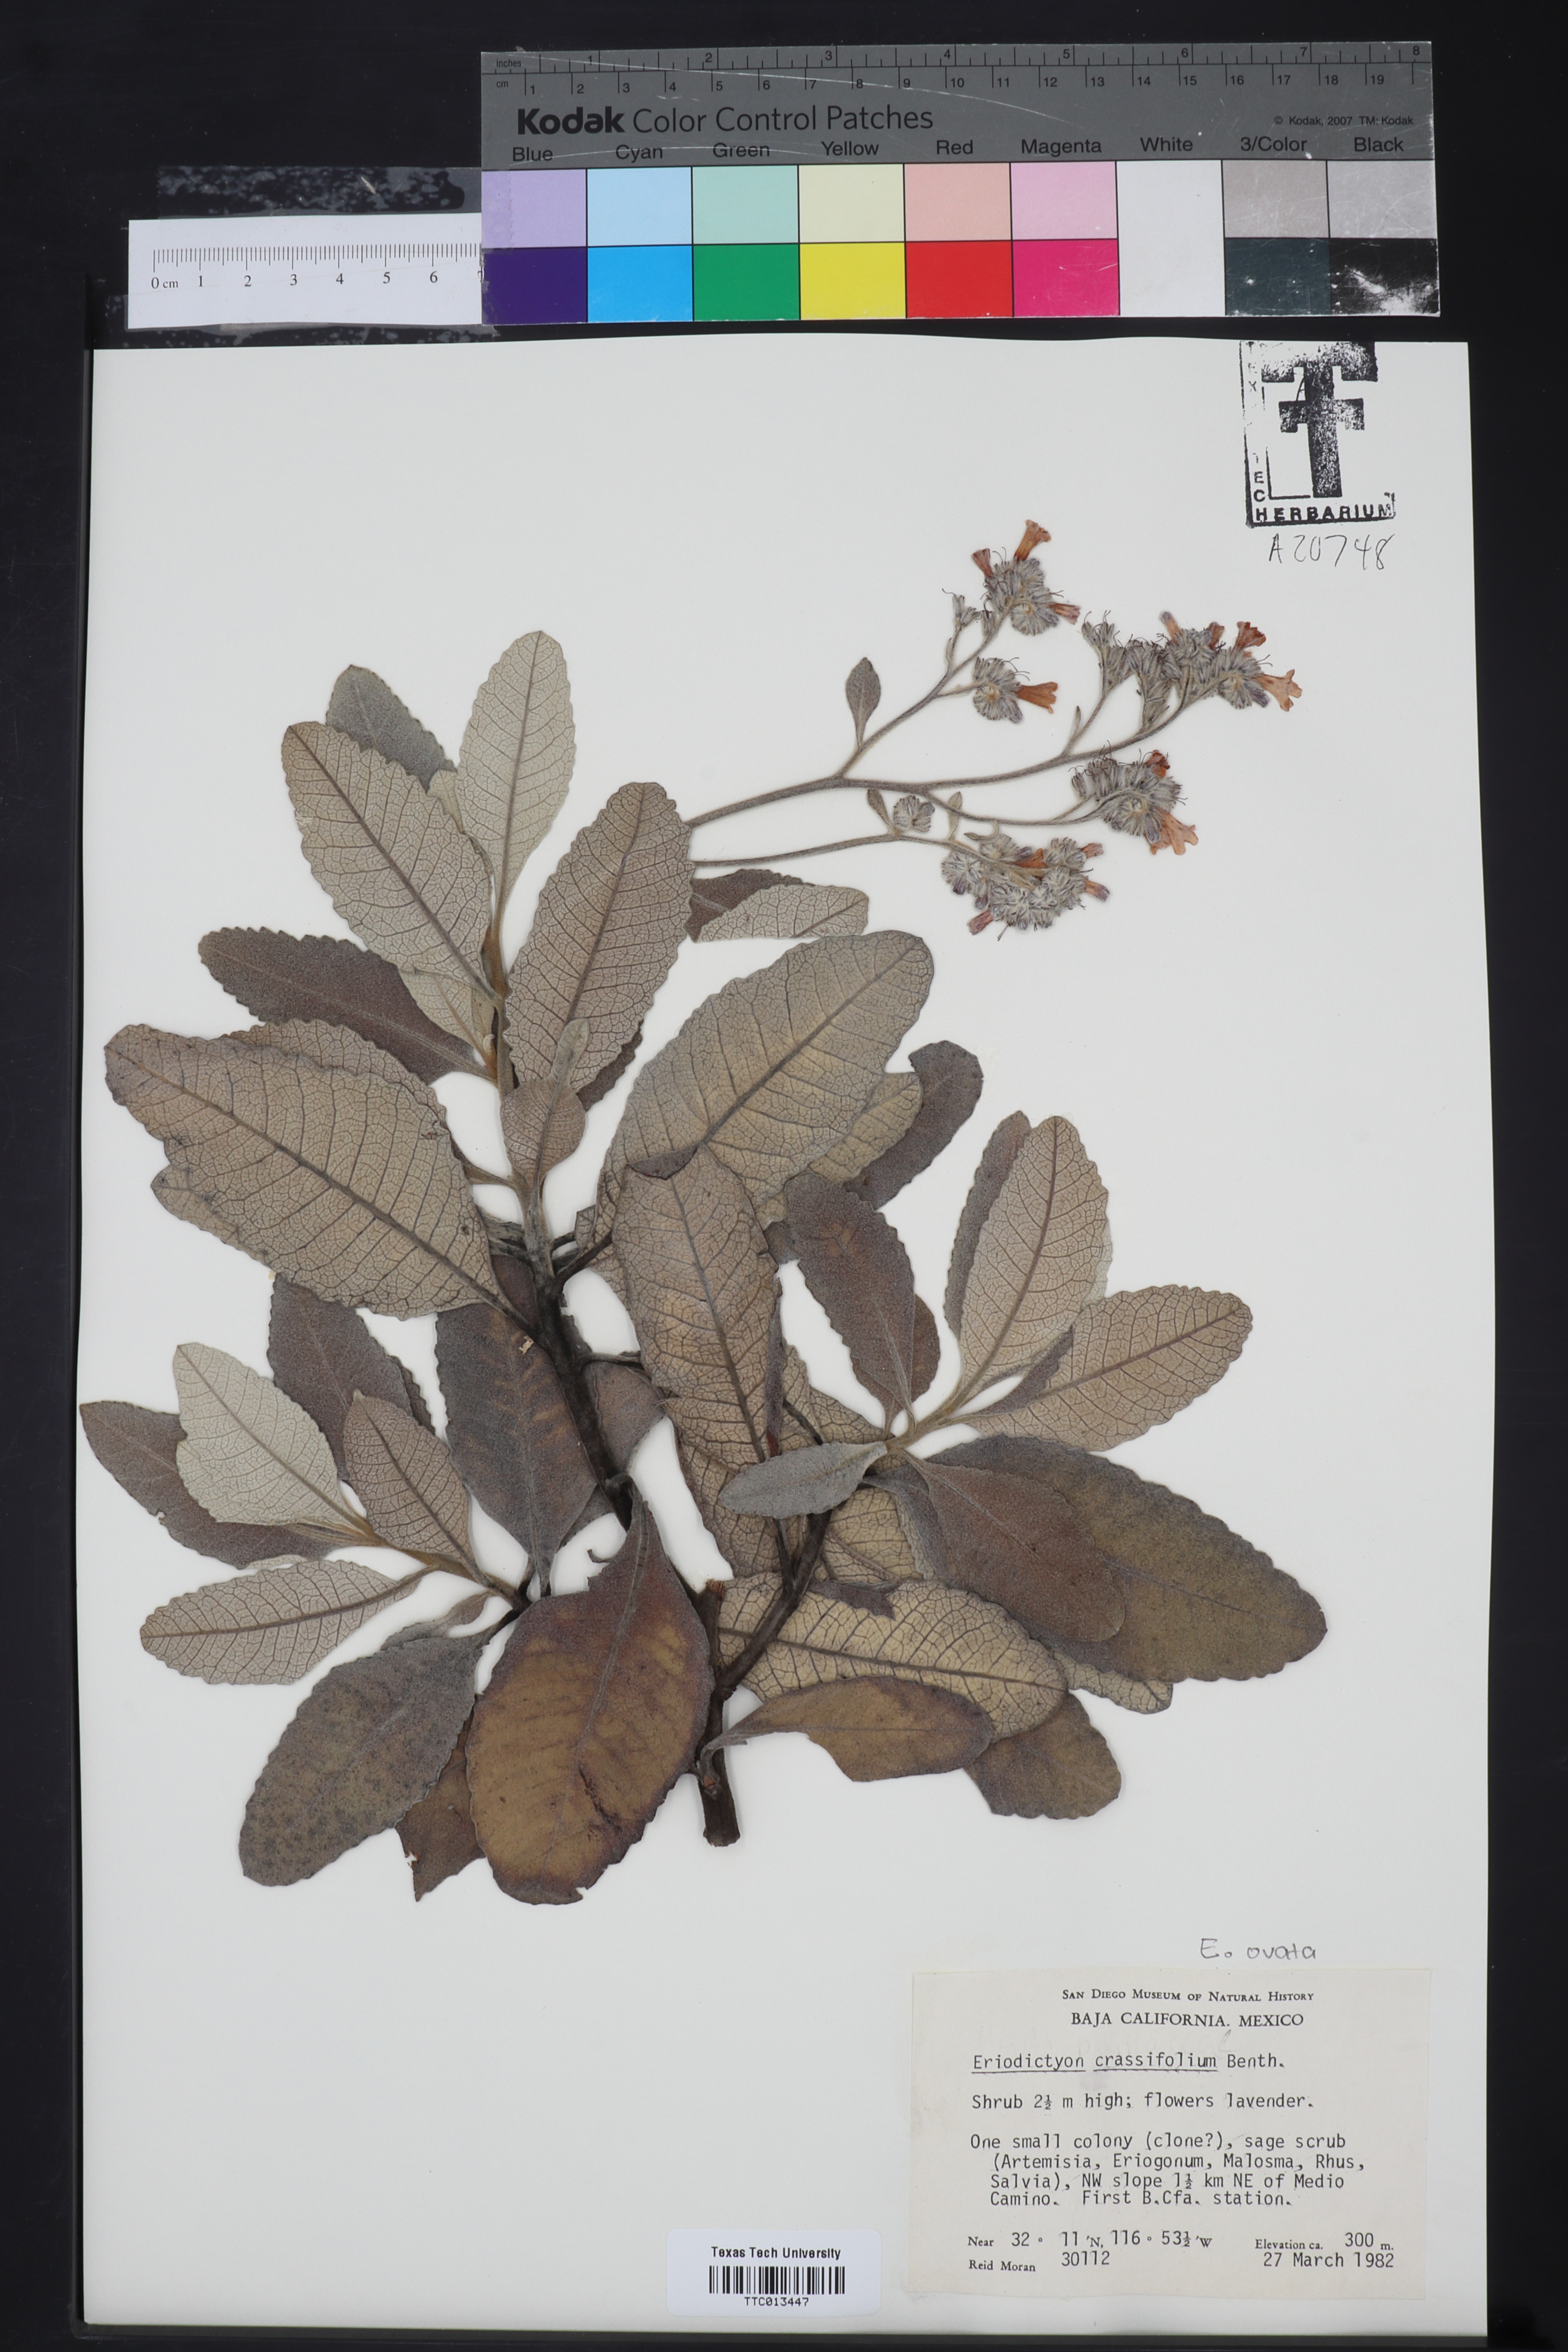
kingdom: Plantae
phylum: Tracheophyta
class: Magnoliopsida
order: Boraginales
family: Namaceae
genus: Eriodictyon
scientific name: Eriodictyon crassifolium
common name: Thick-leaf yerba-santa
